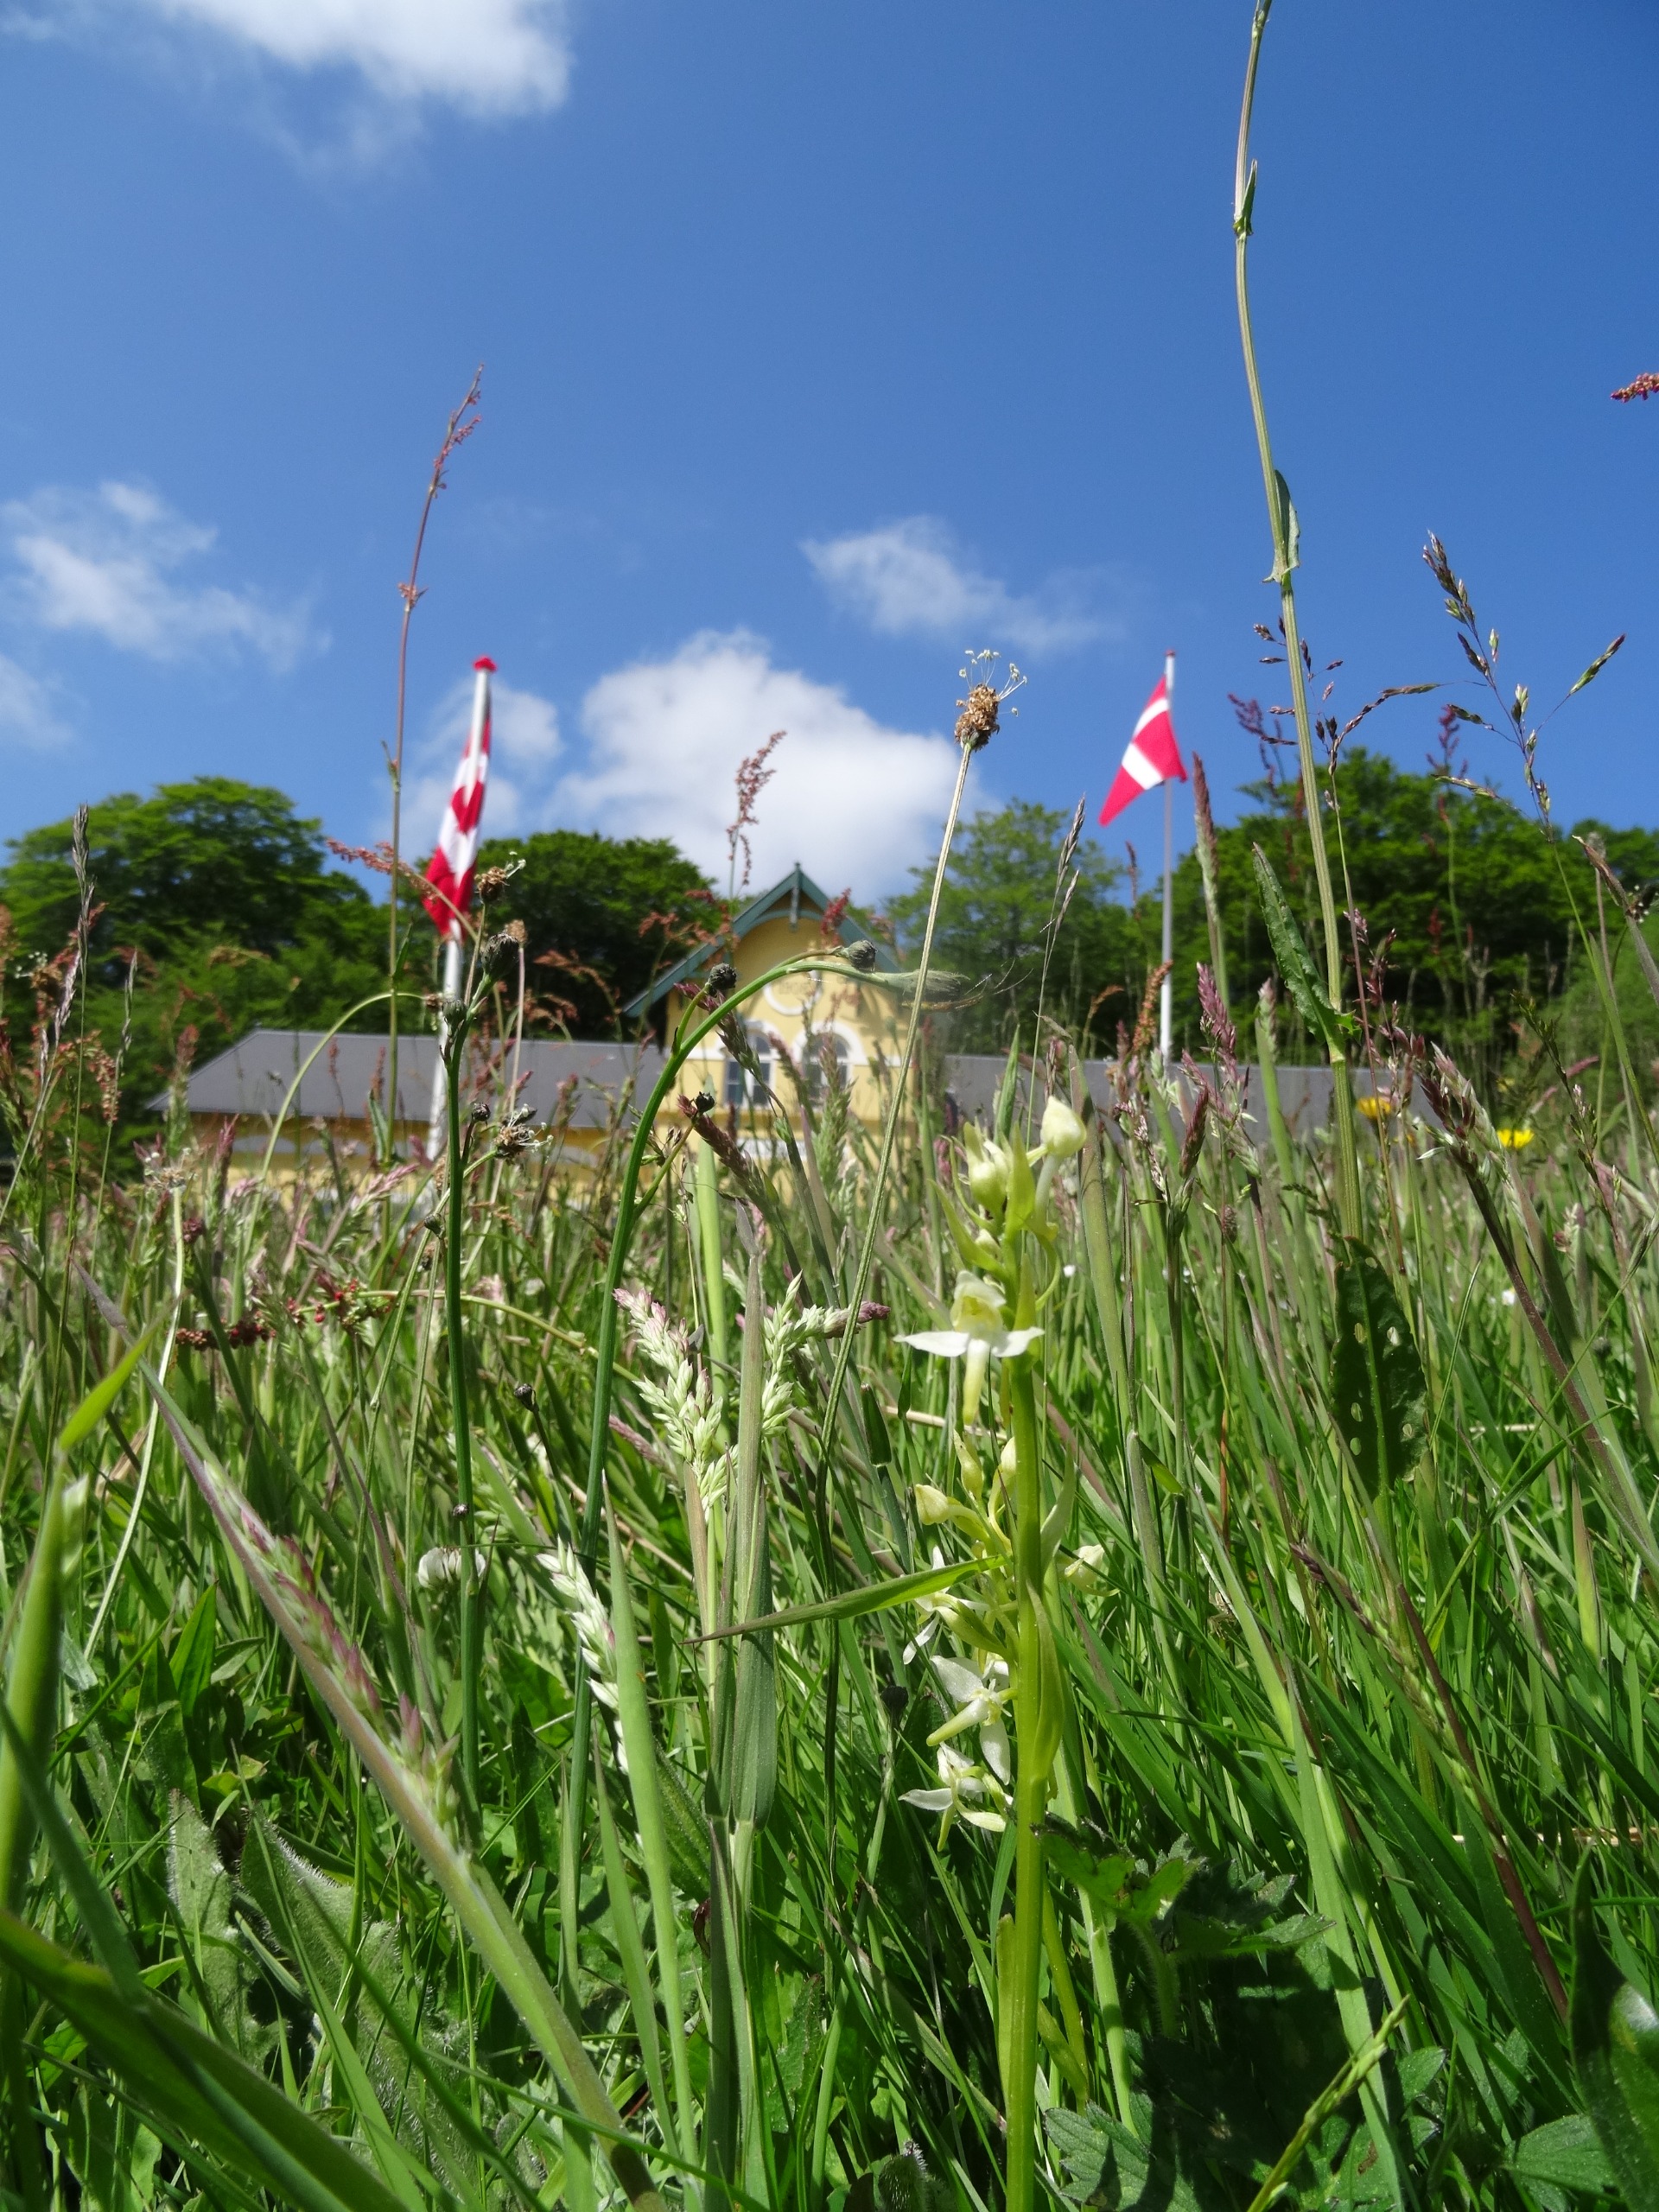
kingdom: Plantae
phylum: Tracheophyta
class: Liliopsida
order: Asparagales
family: Orchidaceae
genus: Platanthera
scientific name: Platanthera chlorantha
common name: Skov-gøgelilje
